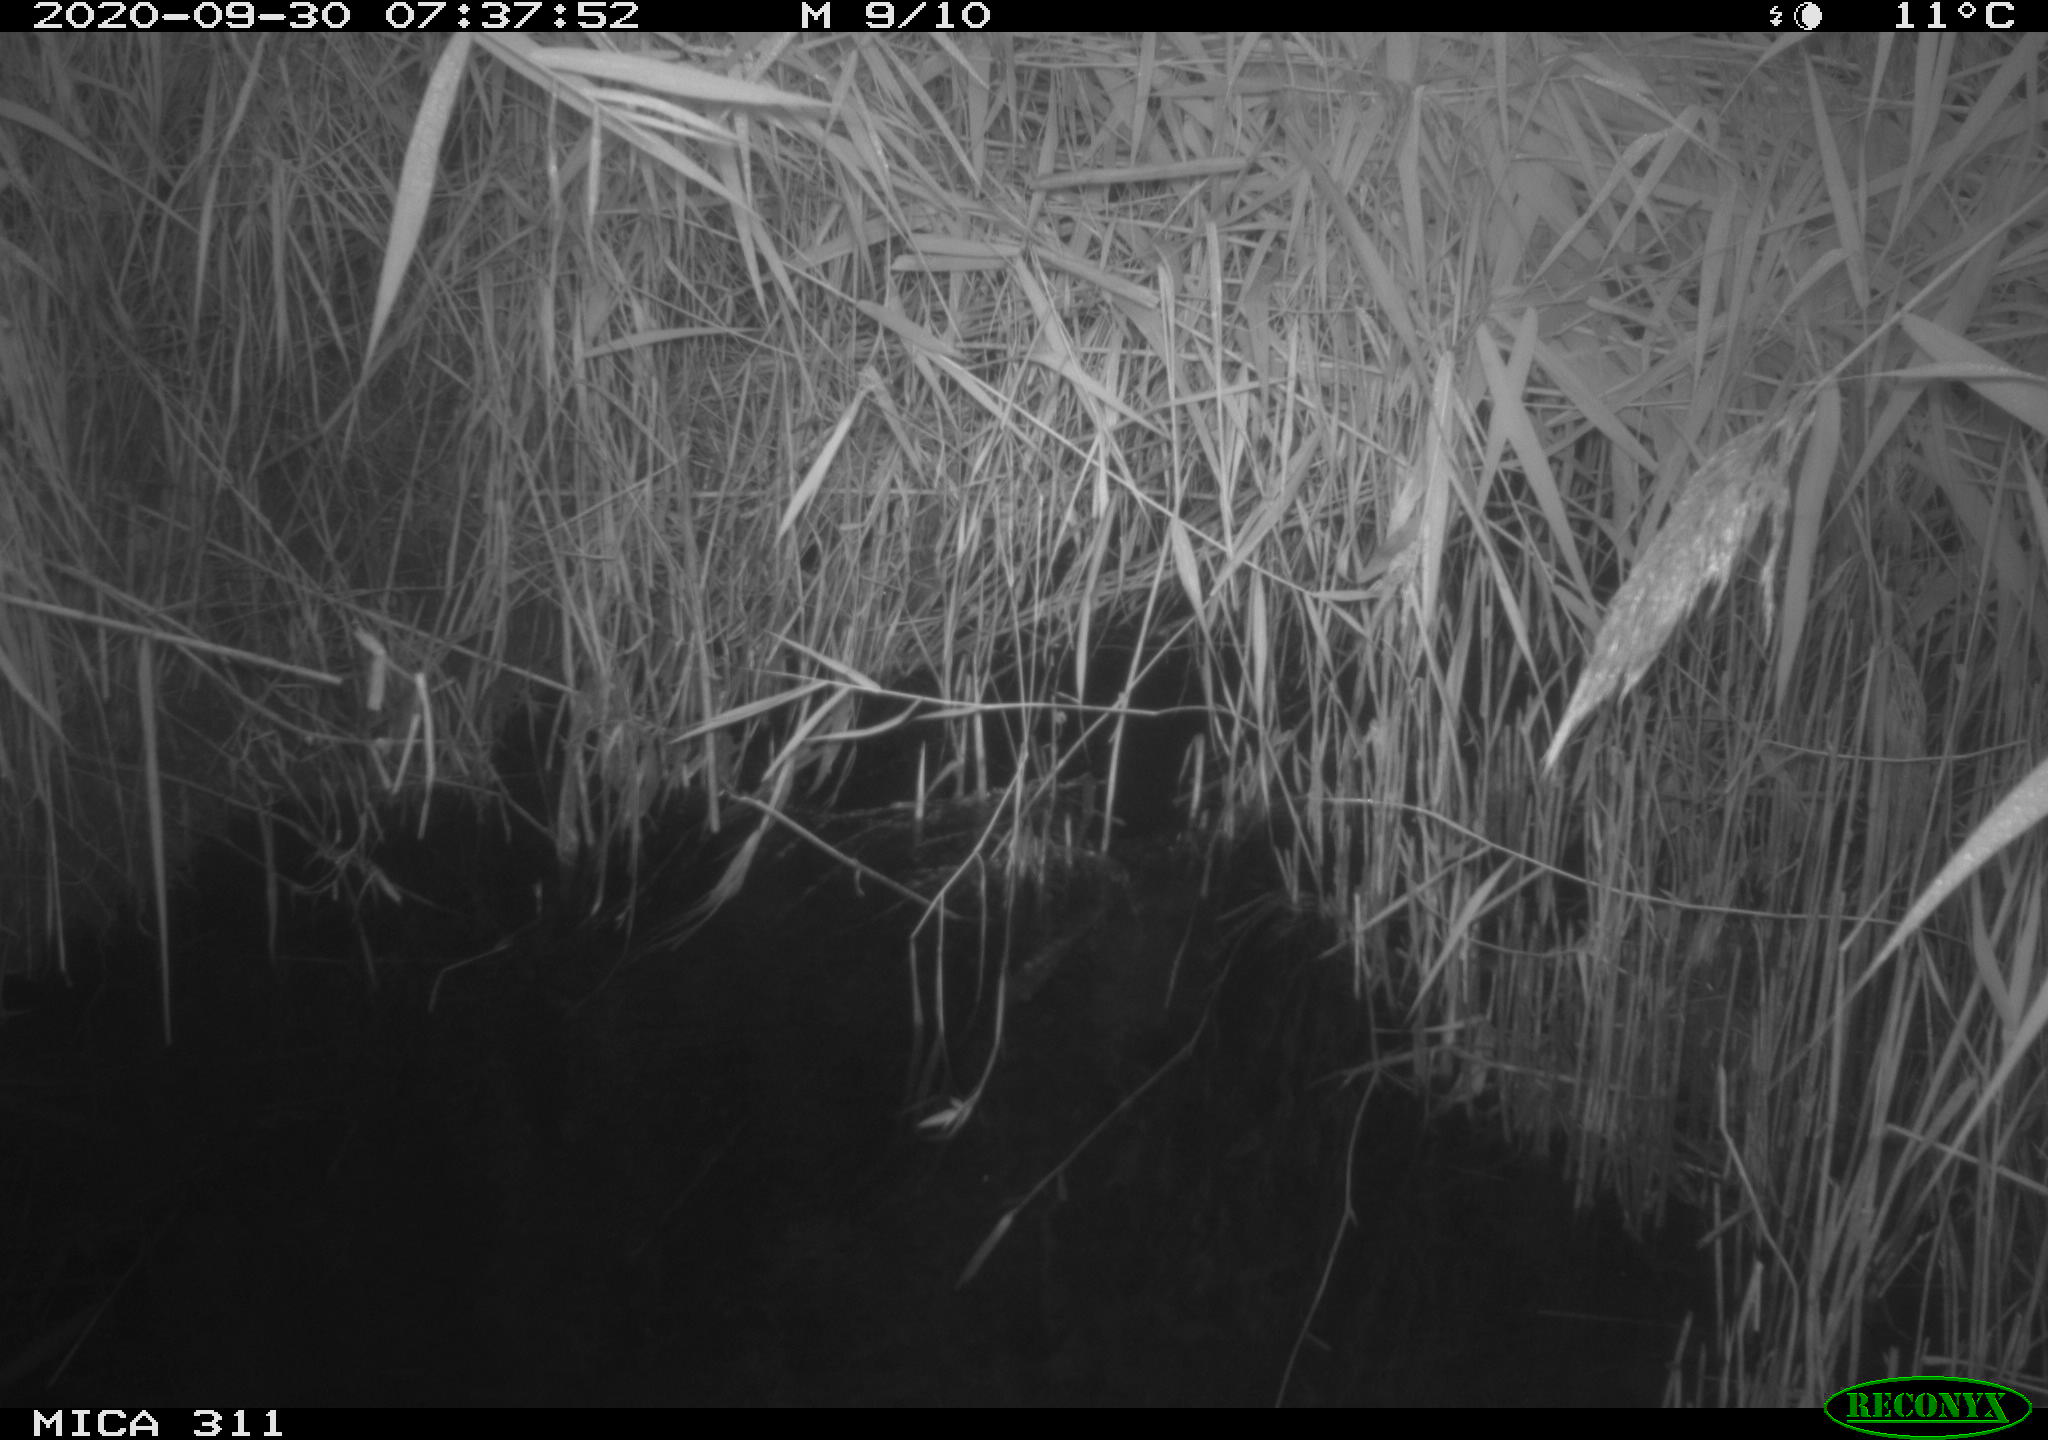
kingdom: Animalia
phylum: Chordata
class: Mammalia
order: Rodentia
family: Muridae
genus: Rattus
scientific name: Rattus norvegicus
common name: Brown rat
